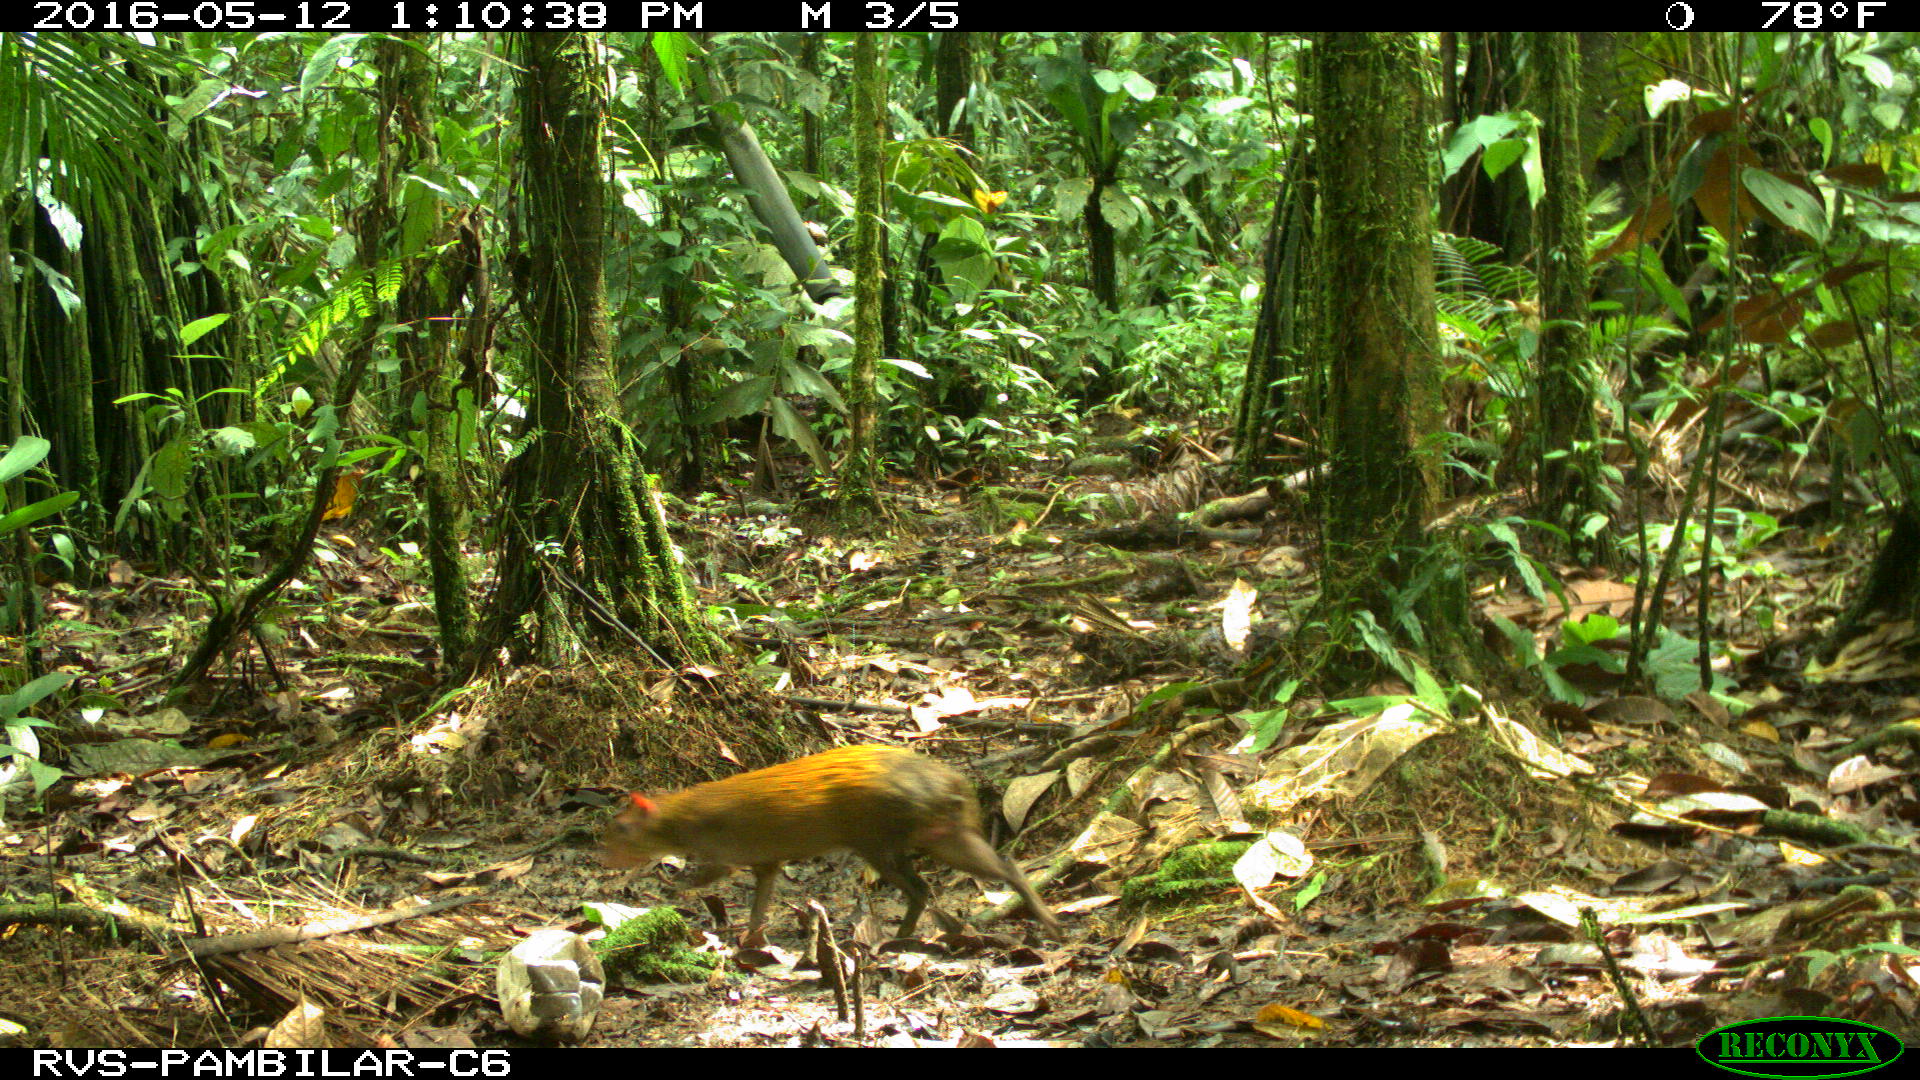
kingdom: Animalia
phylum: Chordata
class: Mammalia
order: Rodentia
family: Dasyproctidae
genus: Dasyprocta
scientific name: Dasyprocta punctata
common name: Central american agouti
